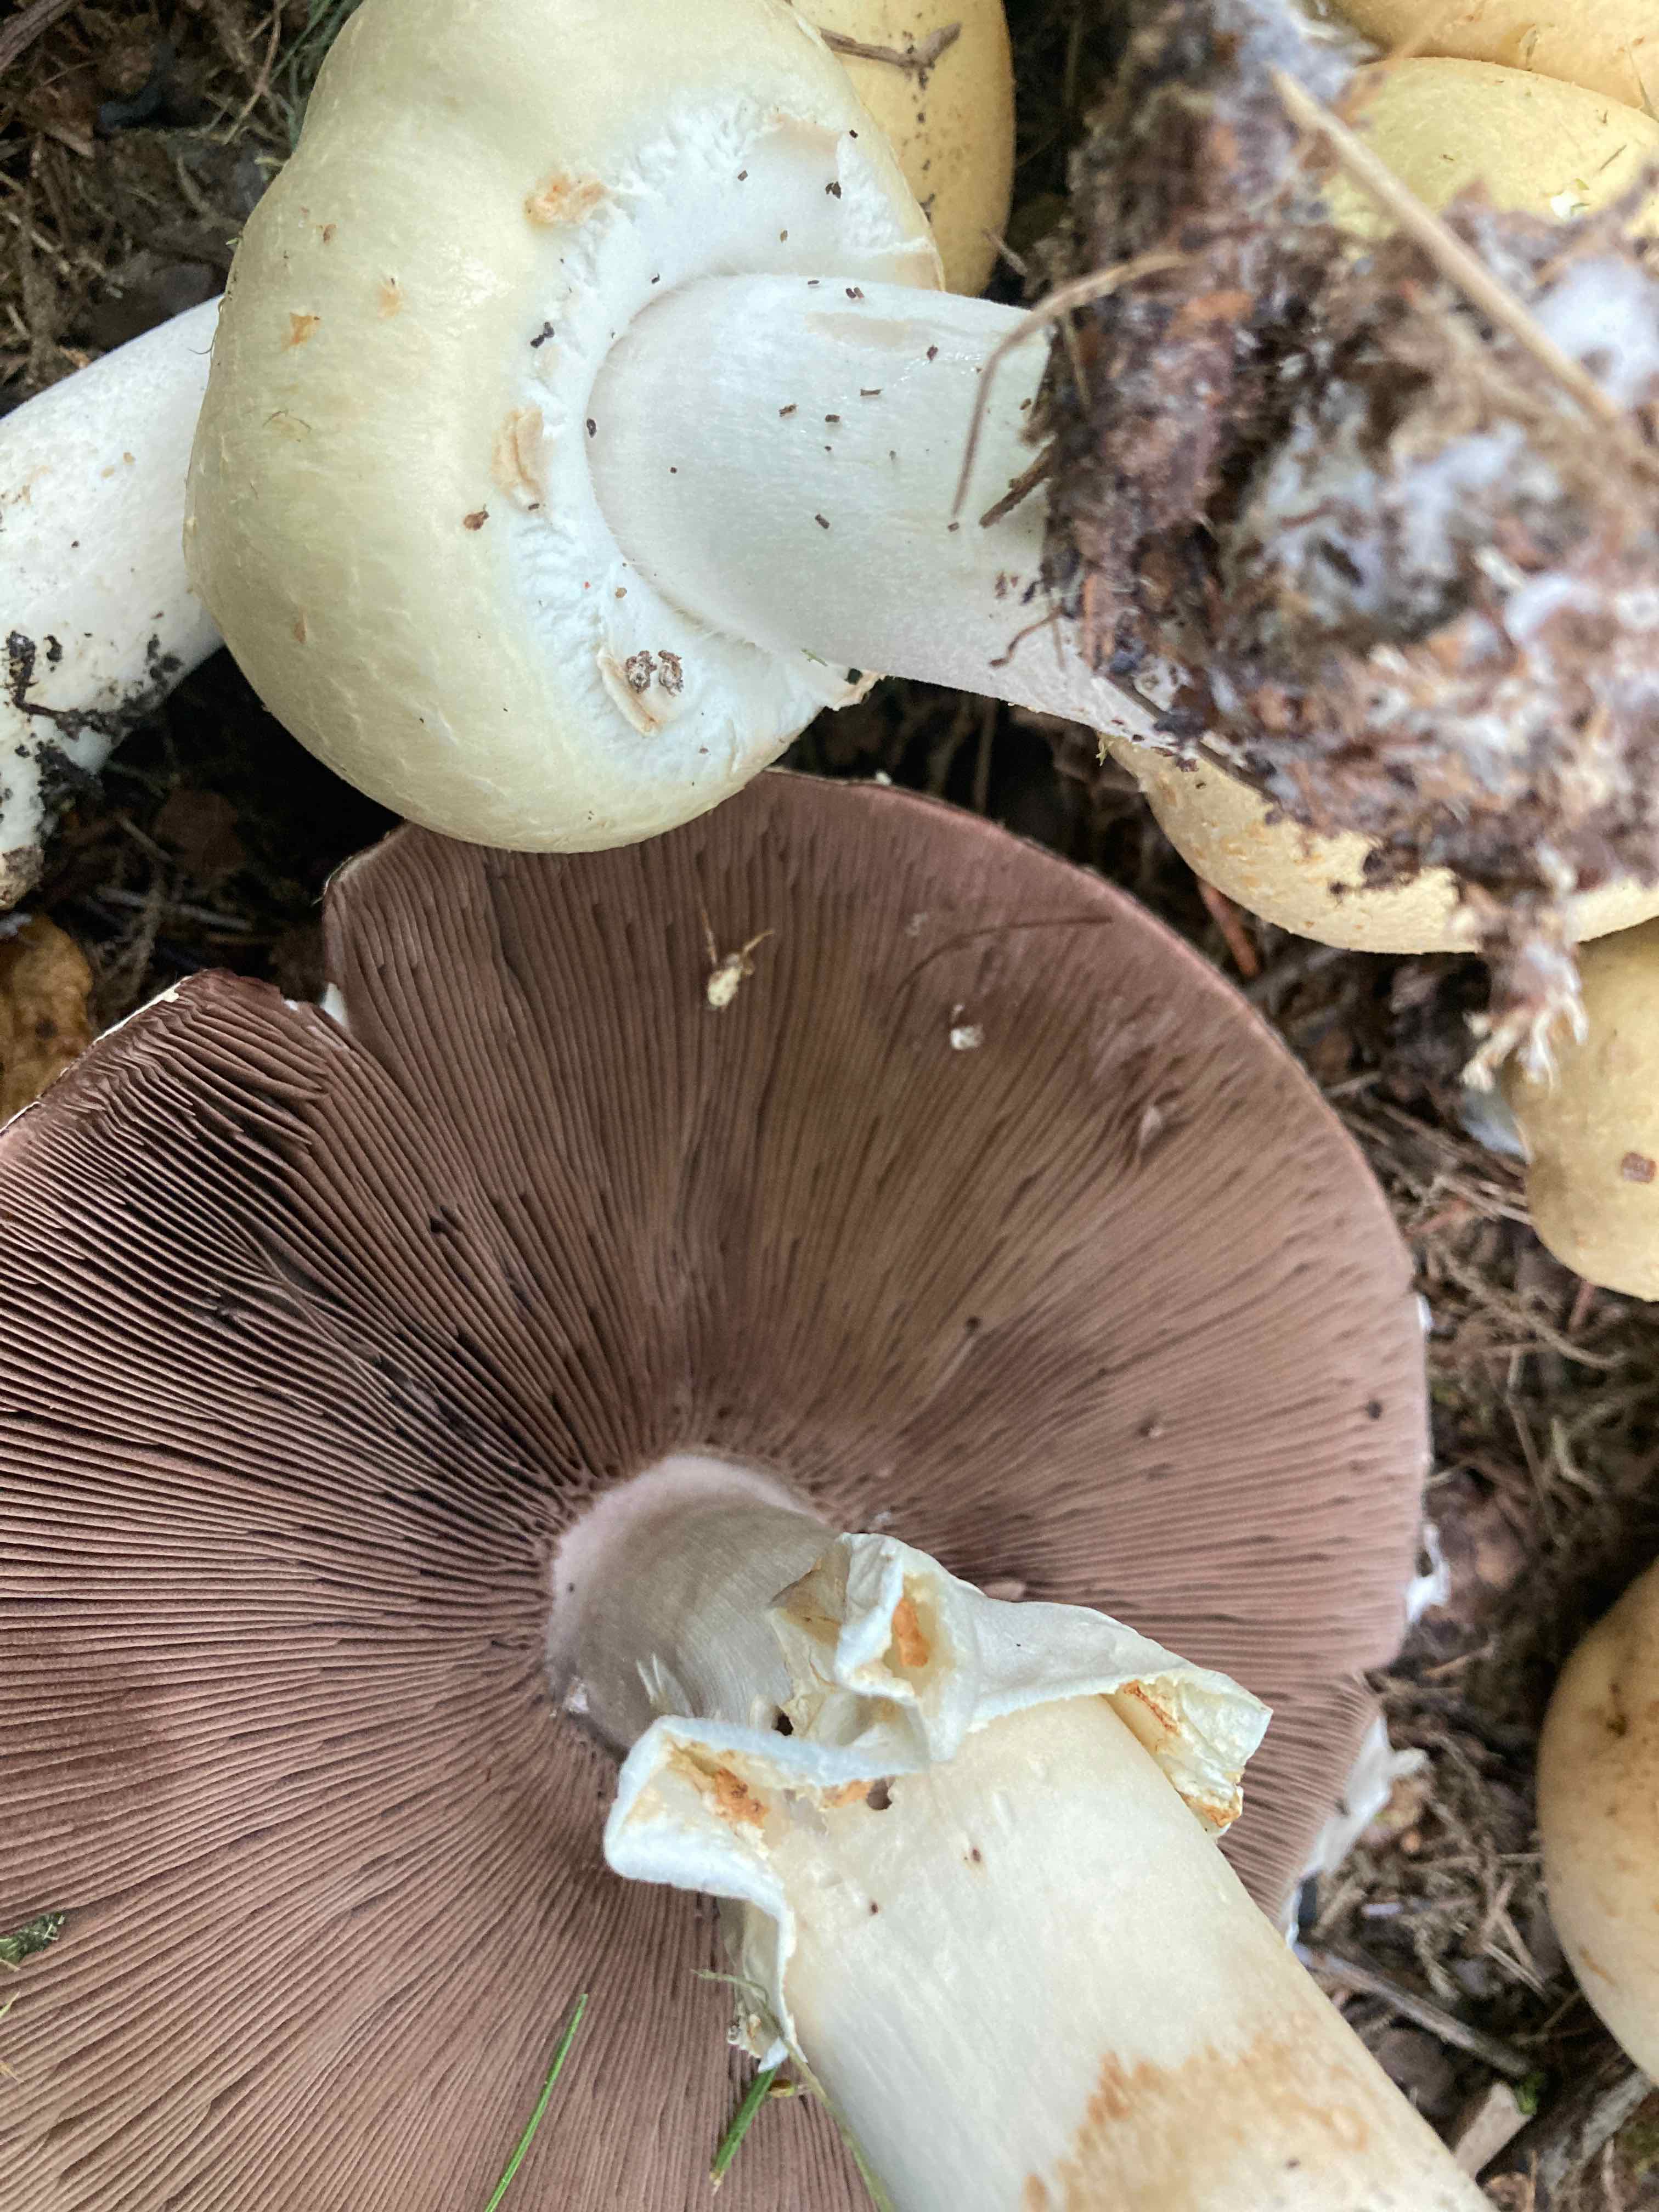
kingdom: Fungi
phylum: Basidiomycota
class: Agaricomycetes
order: Agaricales
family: Agaricaceae
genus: Agaricus
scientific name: Agaricus arvensis
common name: ager-champignon
